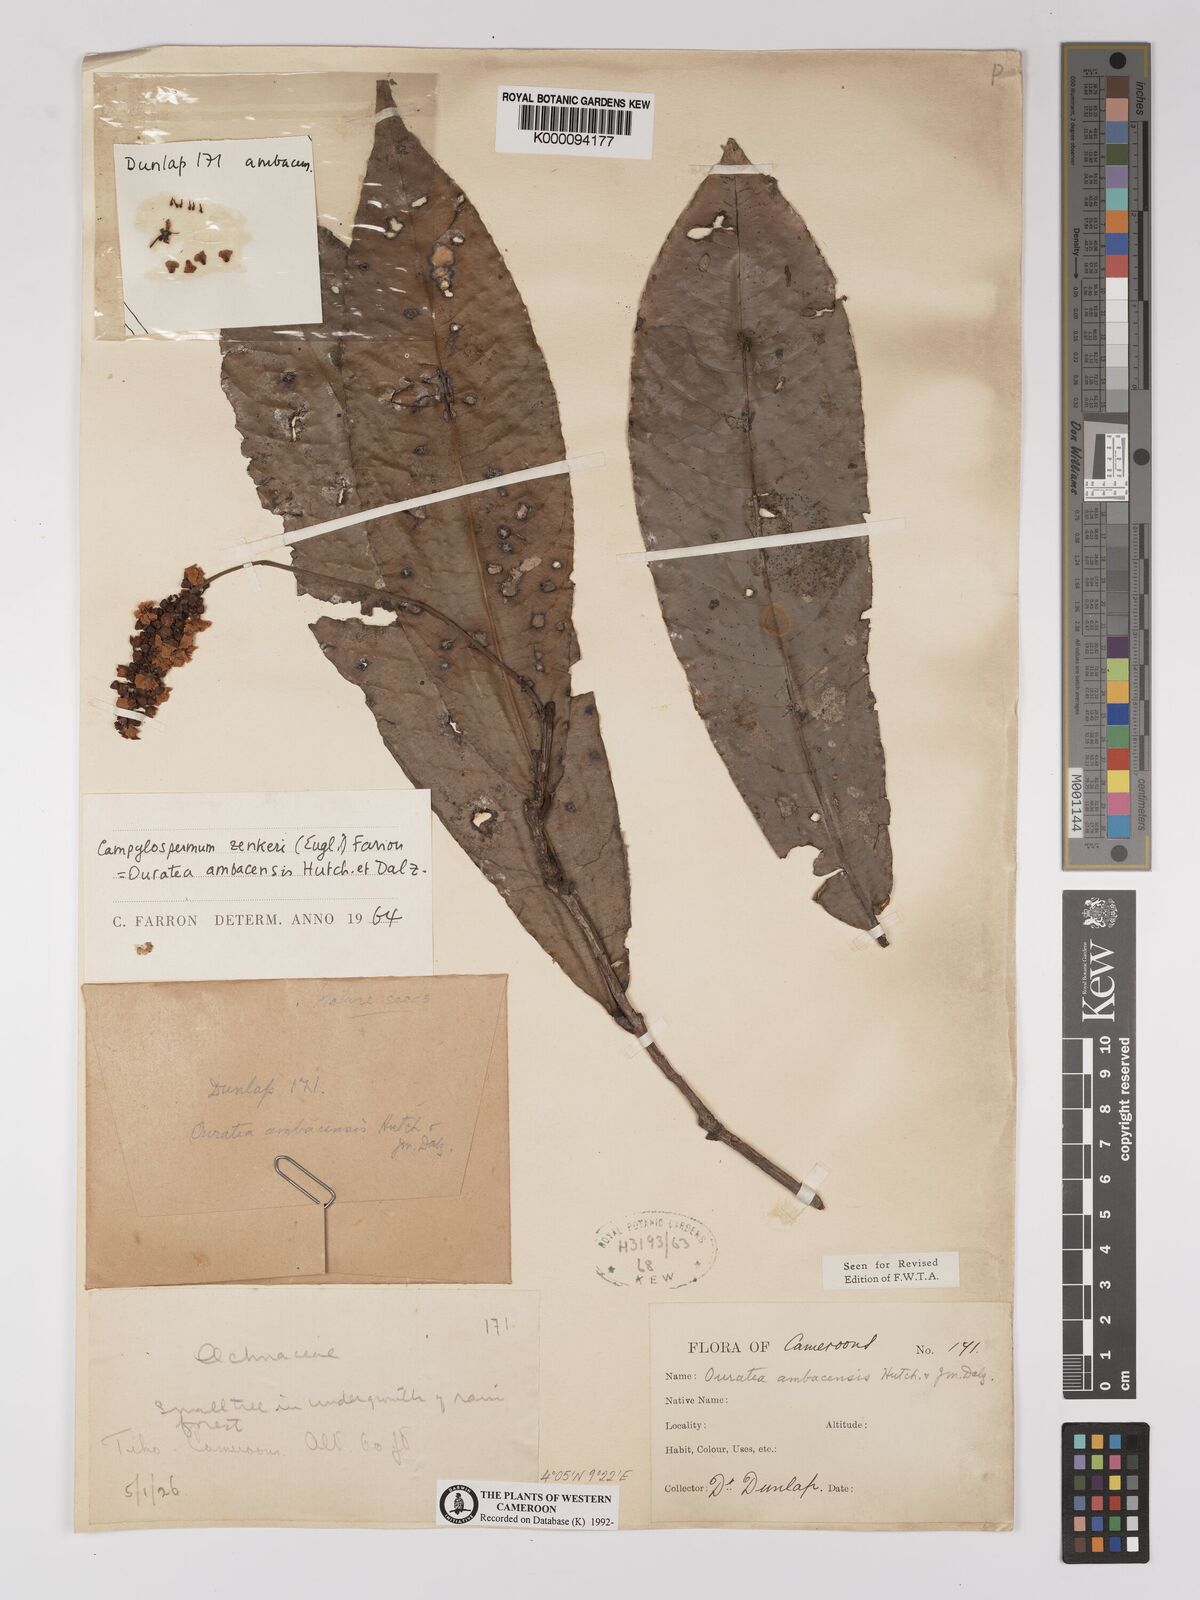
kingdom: Plantae
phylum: Tracheophyta
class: Magnoliopsida
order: Malpighiales
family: Ochnaceae
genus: Campylospermum
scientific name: Campylospermum zenkeri
